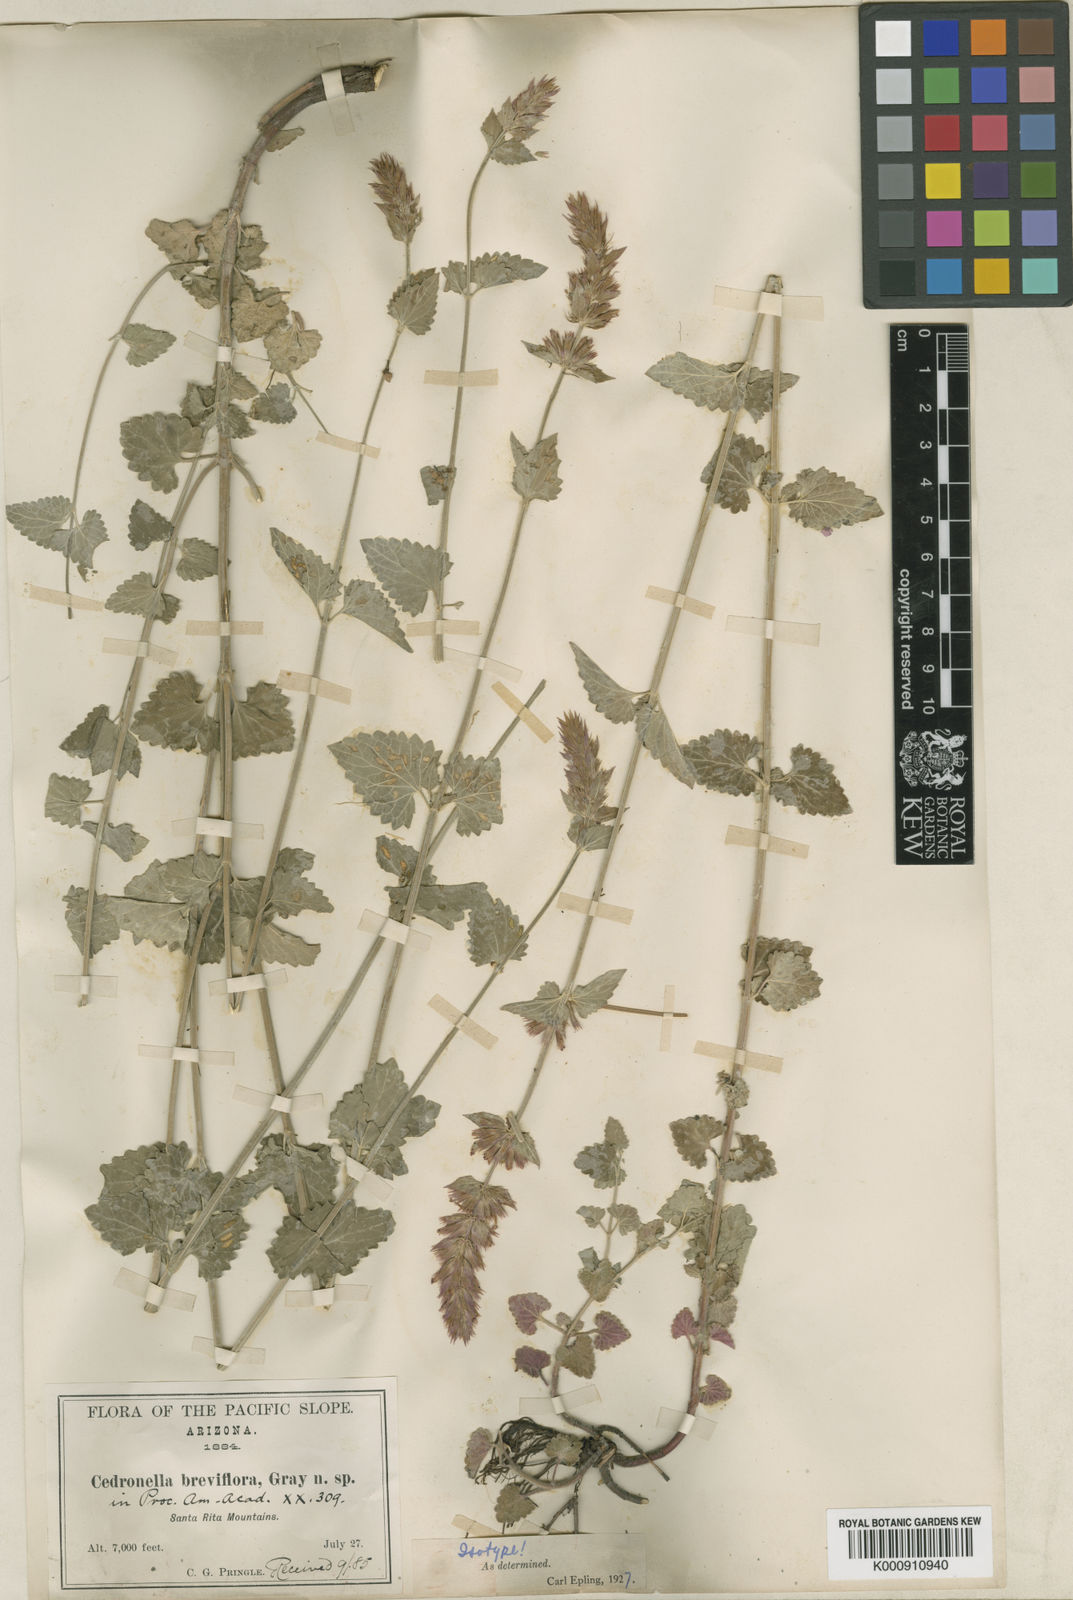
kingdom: Plantae
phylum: Tracheophyta
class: Magnoliopsida
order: Lamiales
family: Lamiaceae
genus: Agastache
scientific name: Agastache breviflora
